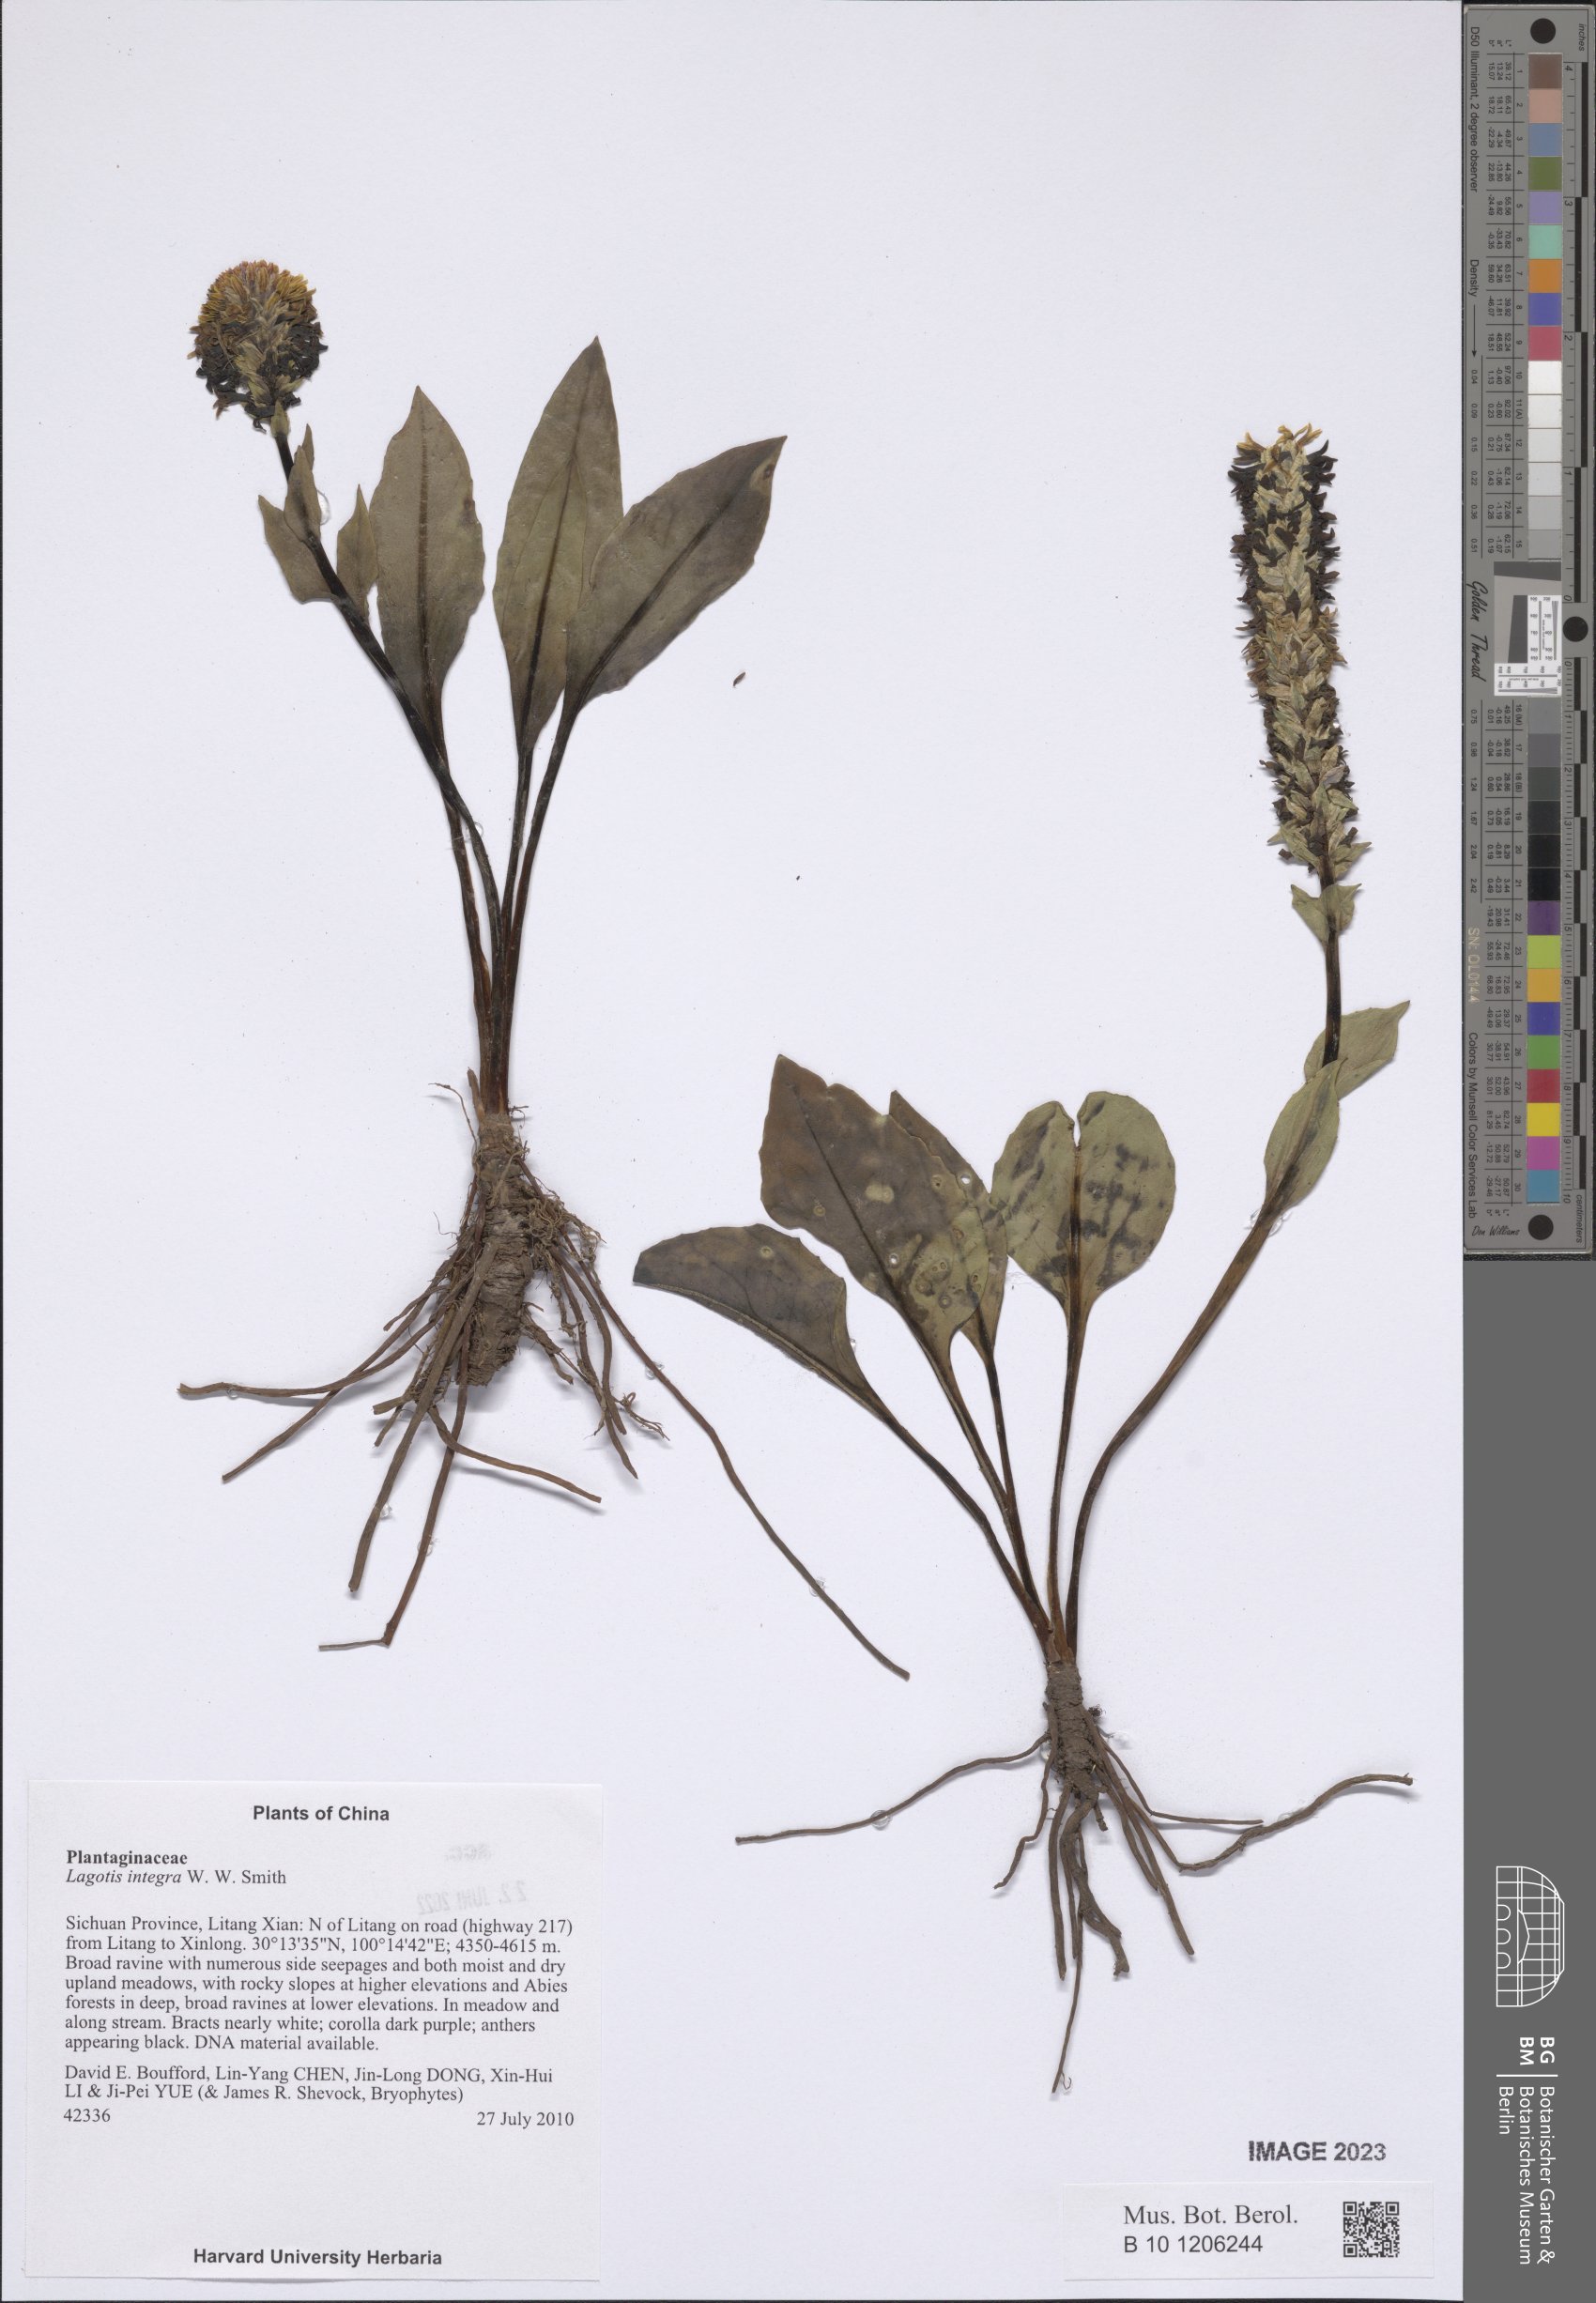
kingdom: Plantae
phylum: Tracheophyta
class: Magnoliopsida
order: Lamiales
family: Plantaginaceae
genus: Lagotis
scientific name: Lagotis integra
